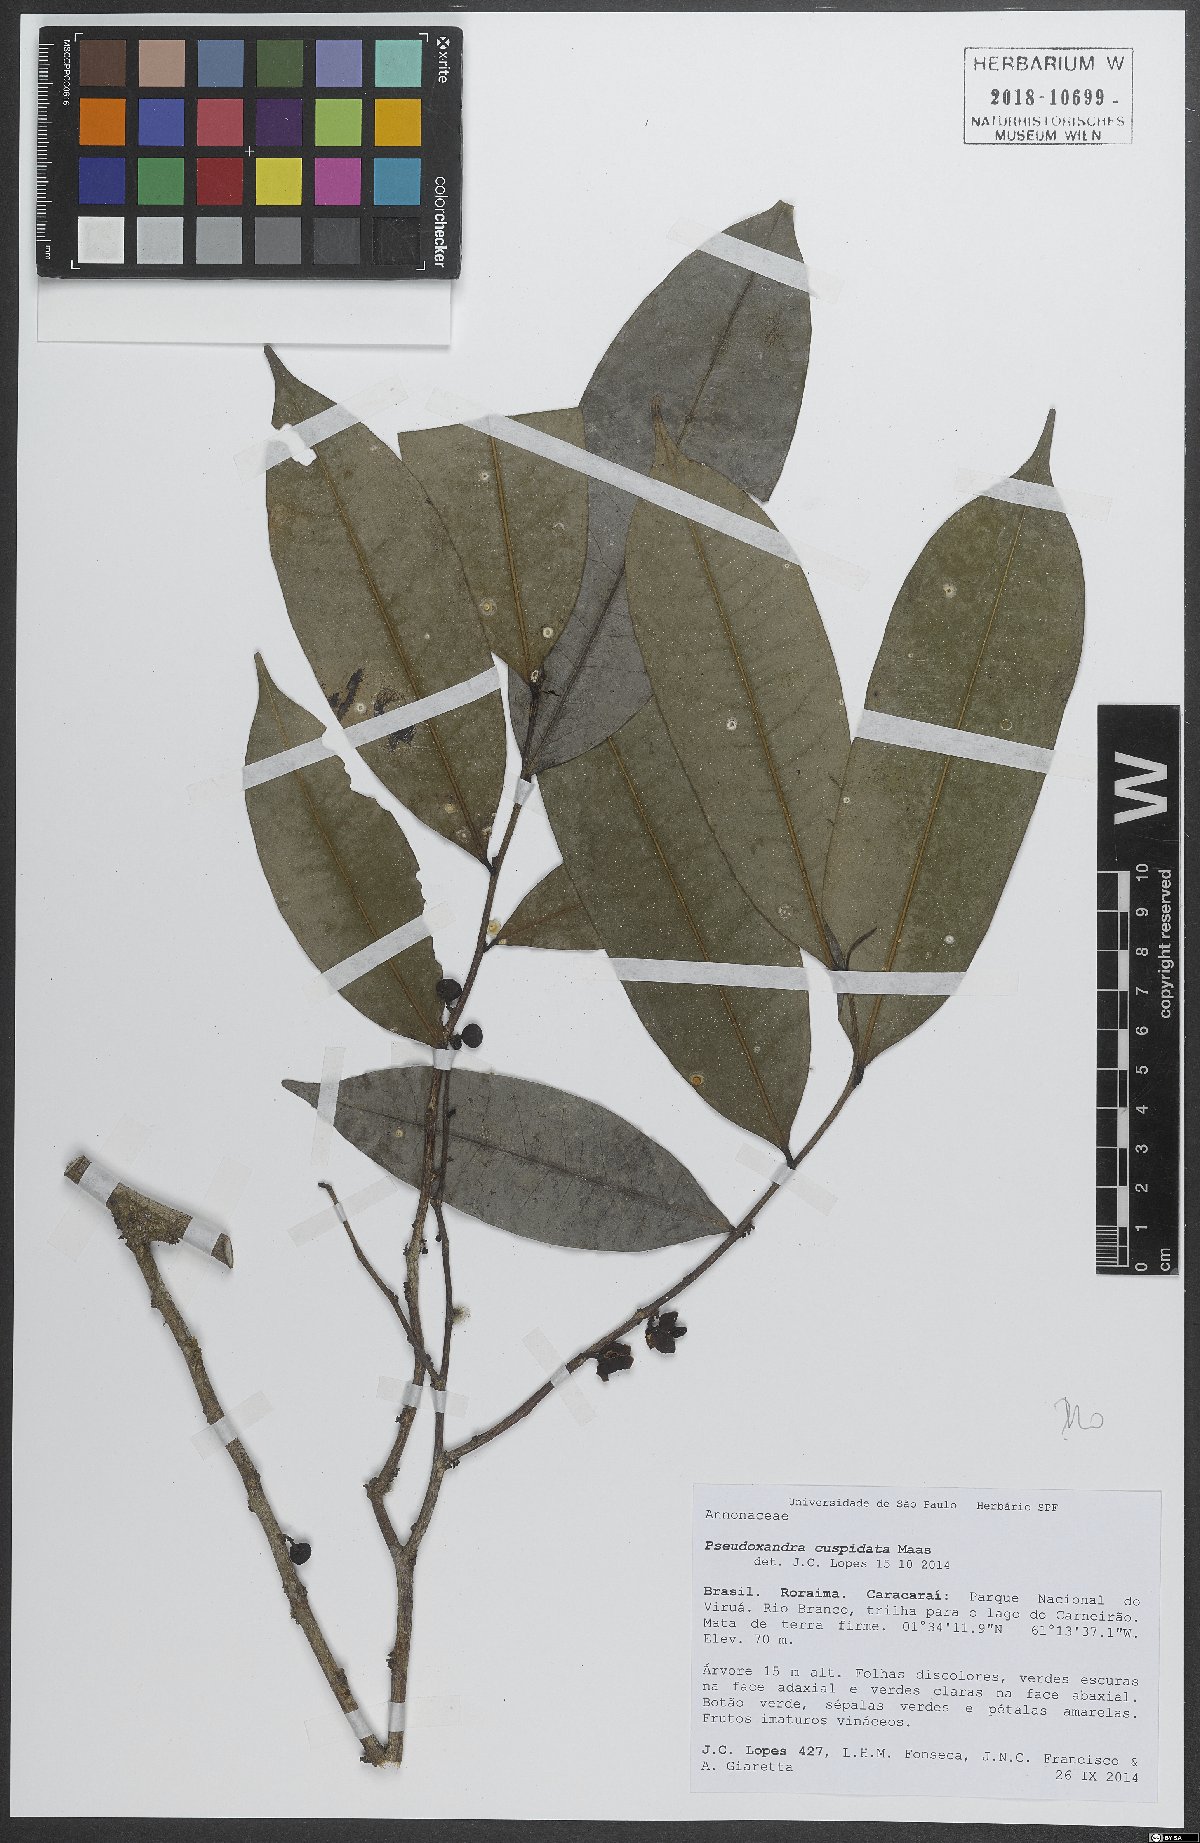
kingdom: Plantae
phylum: Tracheophyta
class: Magnoliopsida
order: Magnoliales
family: Annonaceae
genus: Pseudoxandra
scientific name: Pseudoxandra cuspidata
